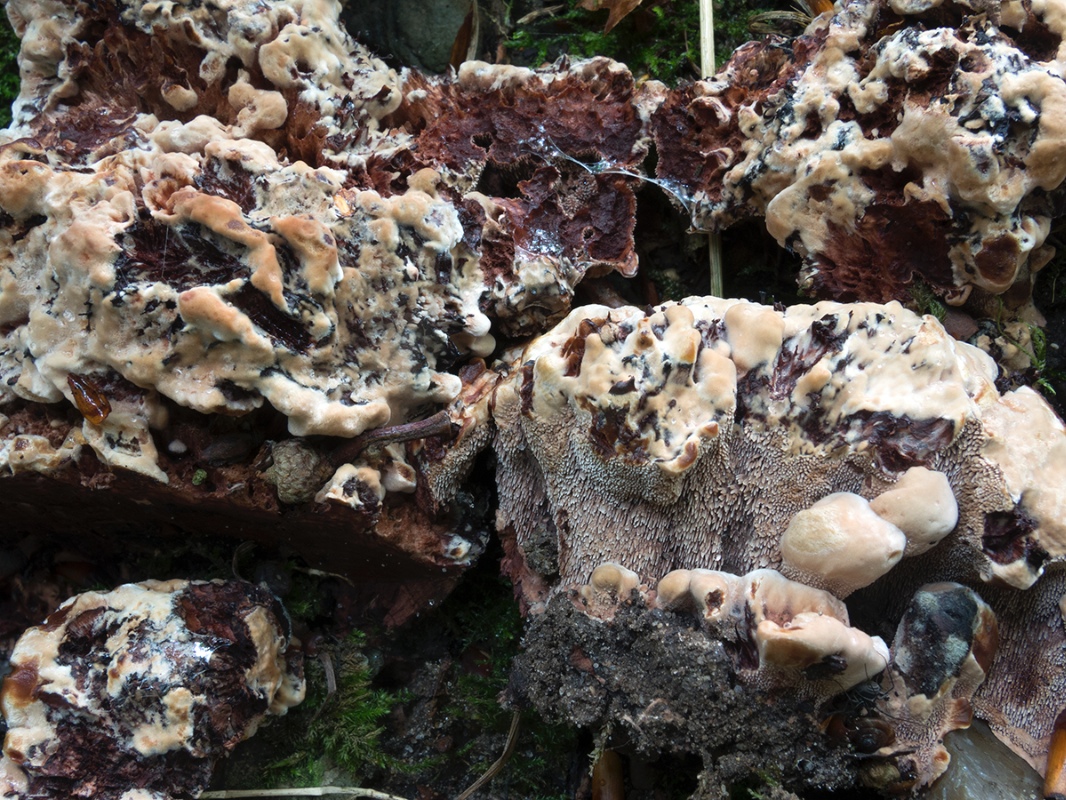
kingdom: Fungi
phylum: Basidiomycota
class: Agaricomycetes
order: Thelephorales
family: Bankeraceae
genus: Hydnellum
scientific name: Hydnellum concrescens
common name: Zoned tooth
